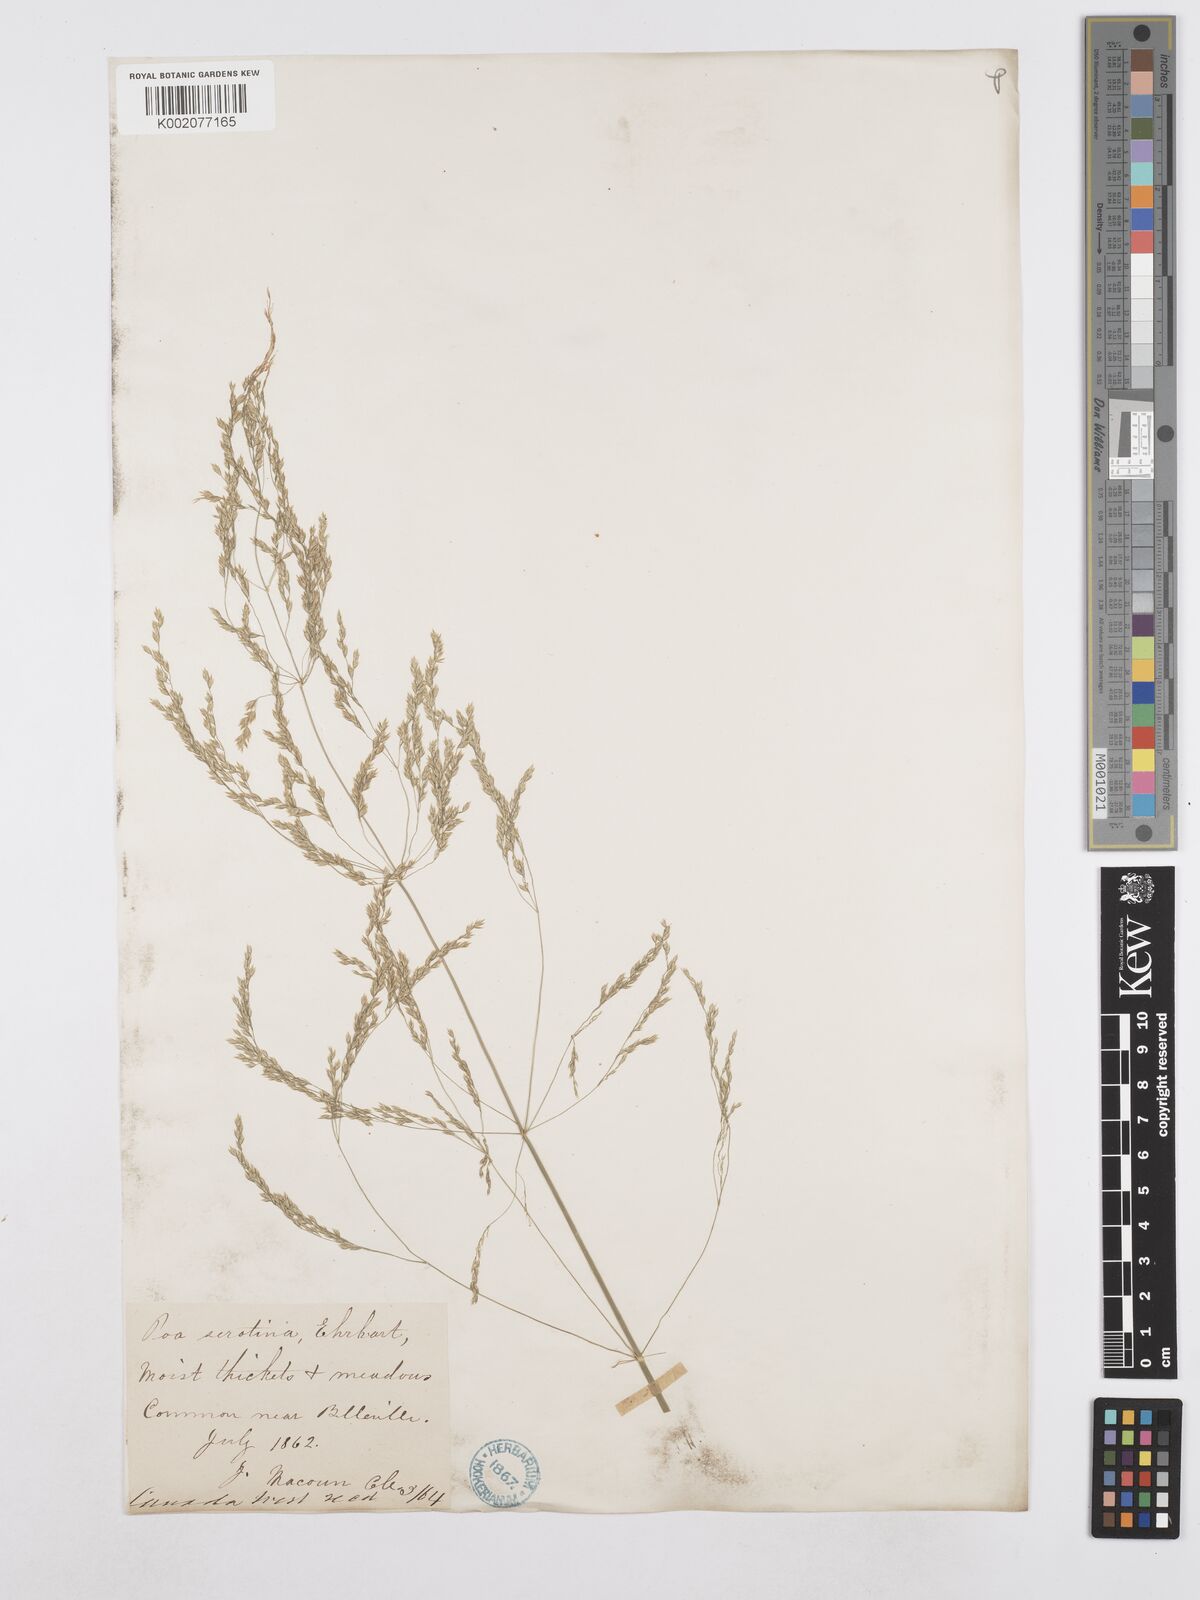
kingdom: Plantae
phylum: Tracheophyta
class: Liliopsida
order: Poales
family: Poaceae
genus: Poa
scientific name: Poa palustris
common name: Swamp meadow-grass
